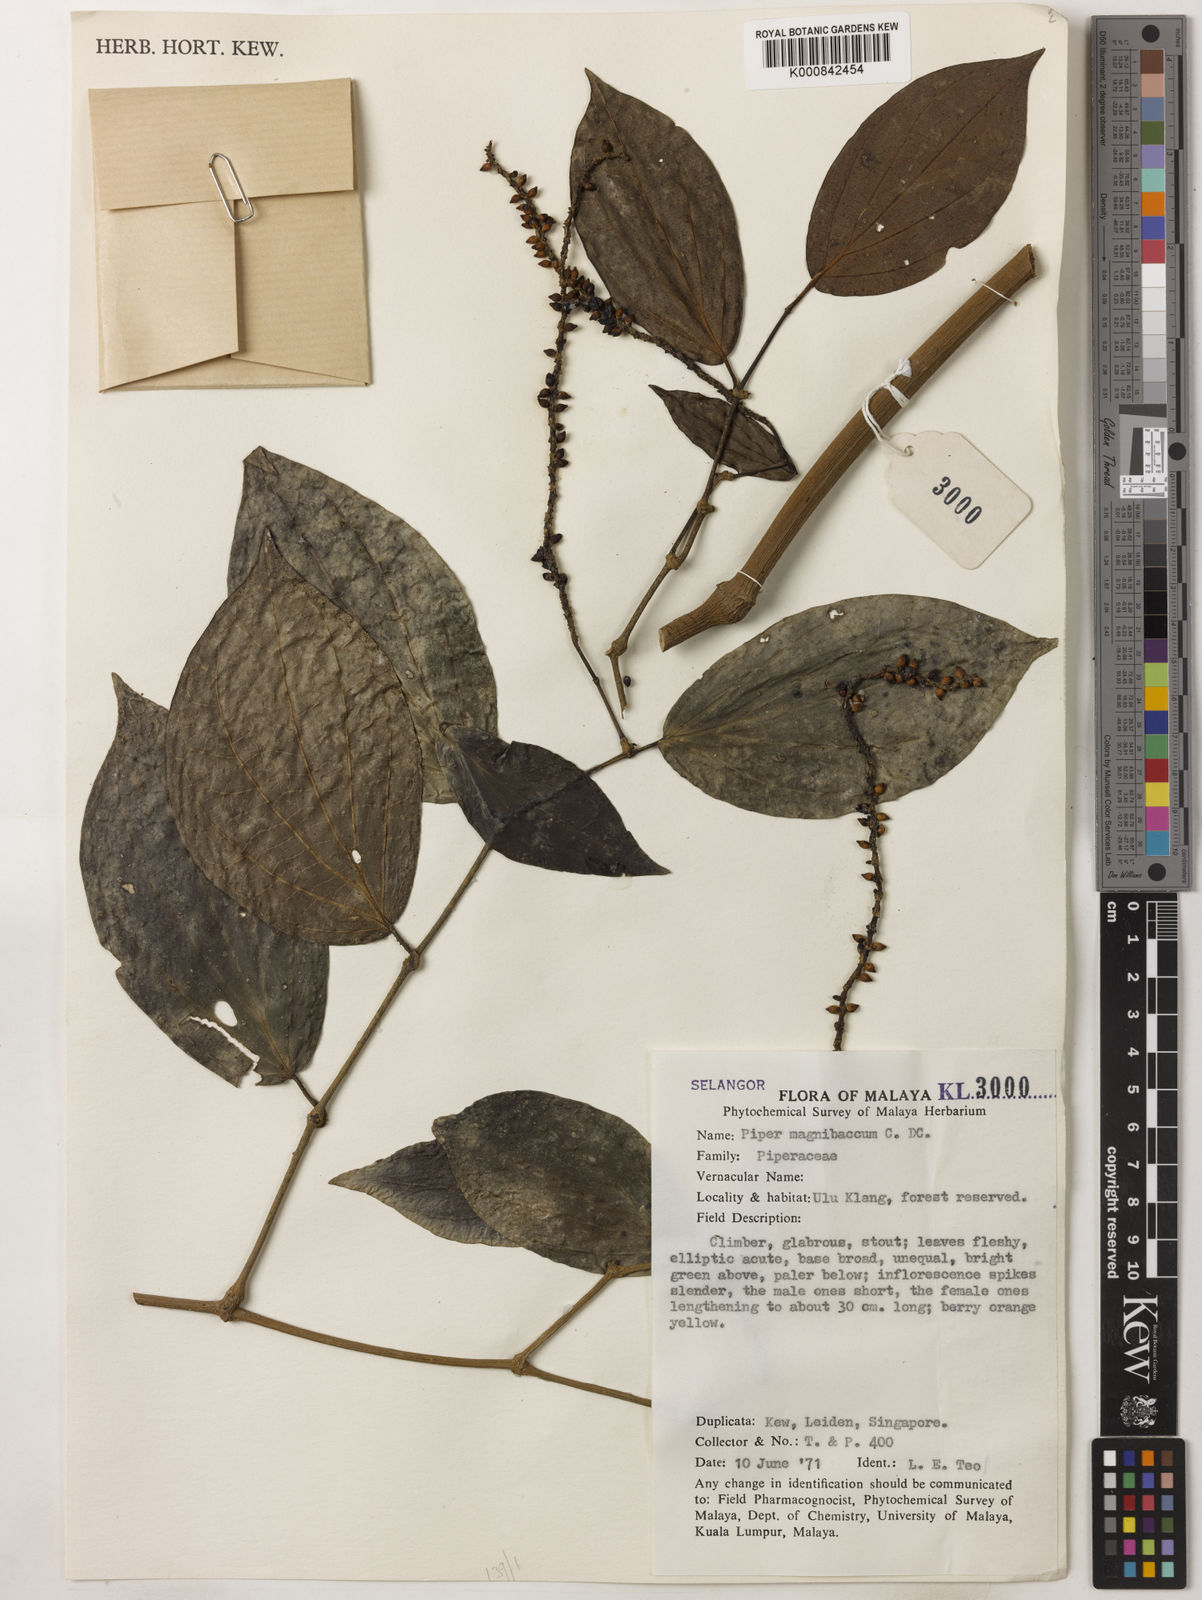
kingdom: Plantae
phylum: Tracheophyta
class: Magnoliopsida
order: Piperales
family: Piperaceae
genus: Piper
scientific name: Piper quinqueangulatum
